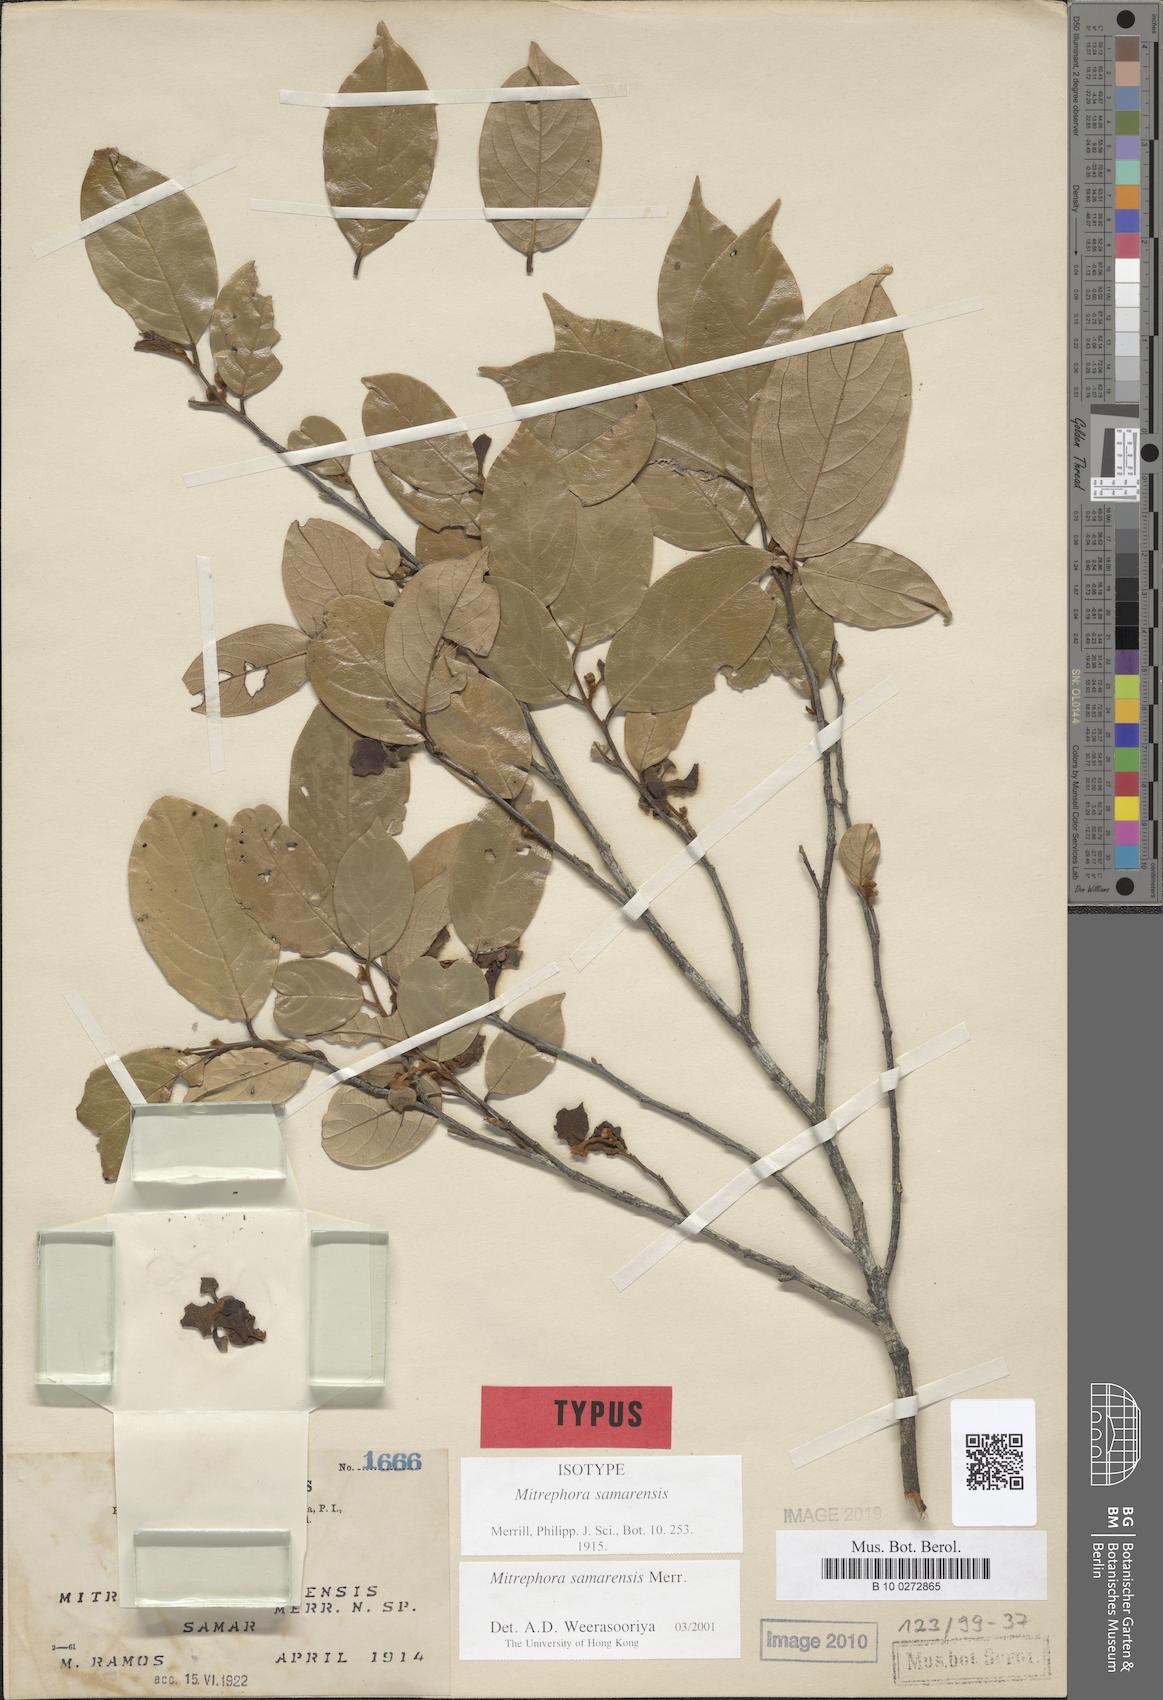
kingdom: Plantae
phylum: Tracheophyta
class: Magnoliopsida
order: Magnoliales
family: Annonaceae
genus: Mitrephora
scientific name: Mitrephora samarensis
